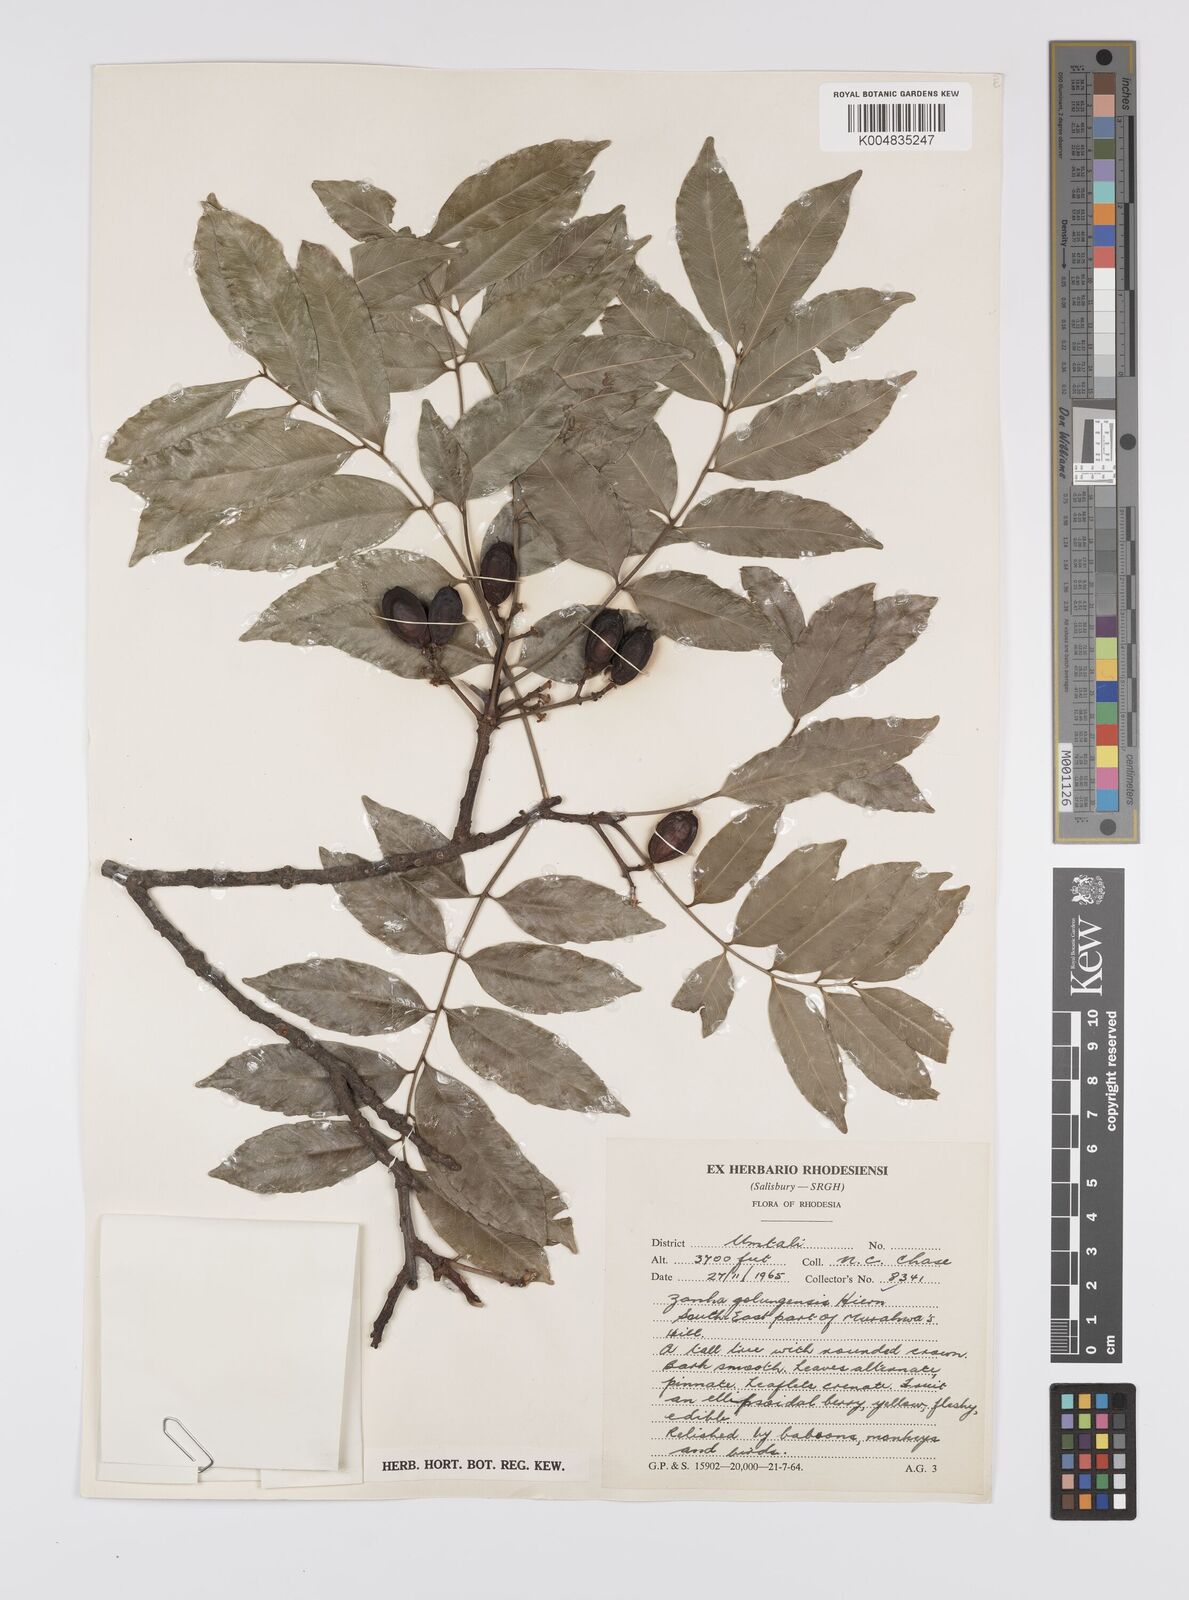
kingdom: Plantae
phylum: Tracheophyta
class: Magnoliopsida
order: Sapindales
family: Sapindaceae
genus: Zanha
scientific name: Zanha golungensis
